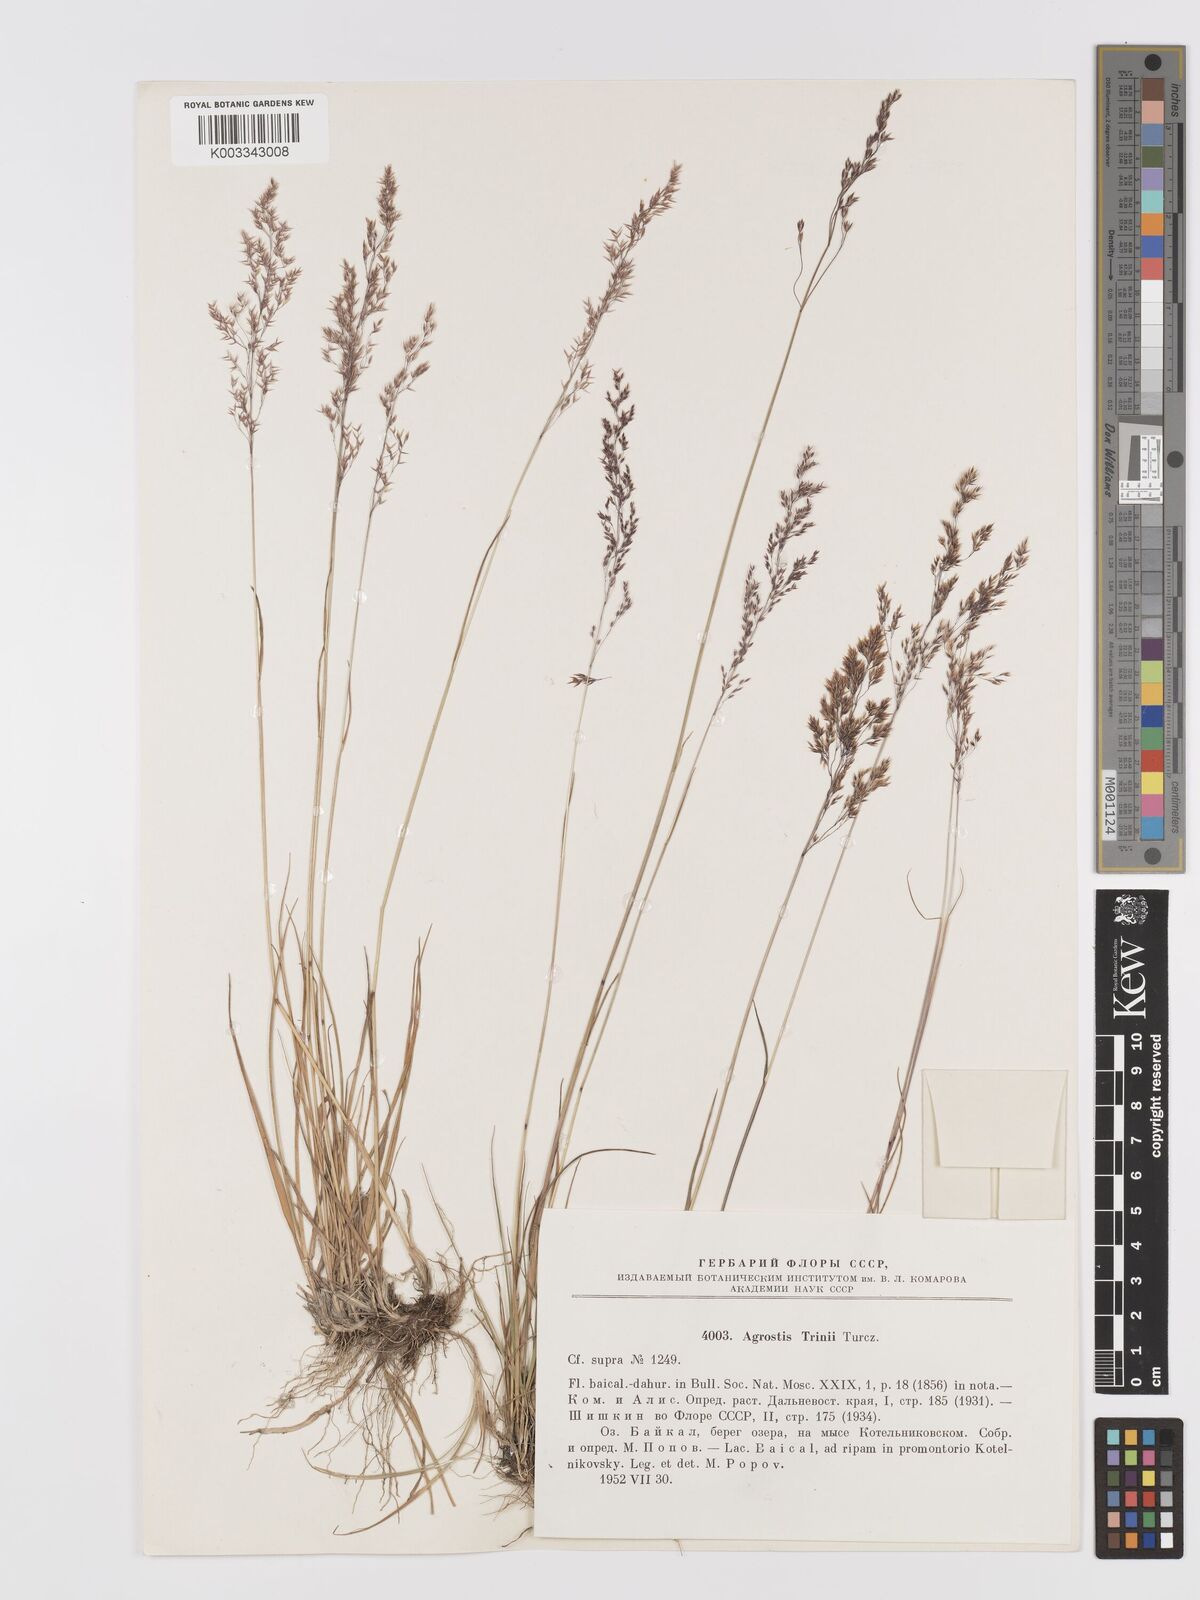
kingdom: Plantae
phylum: Tracheophyta
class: Liliopsida
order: Poales
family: Poaceae
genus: Agrostis
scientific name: Agrostis vinealis
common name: Brown bent
